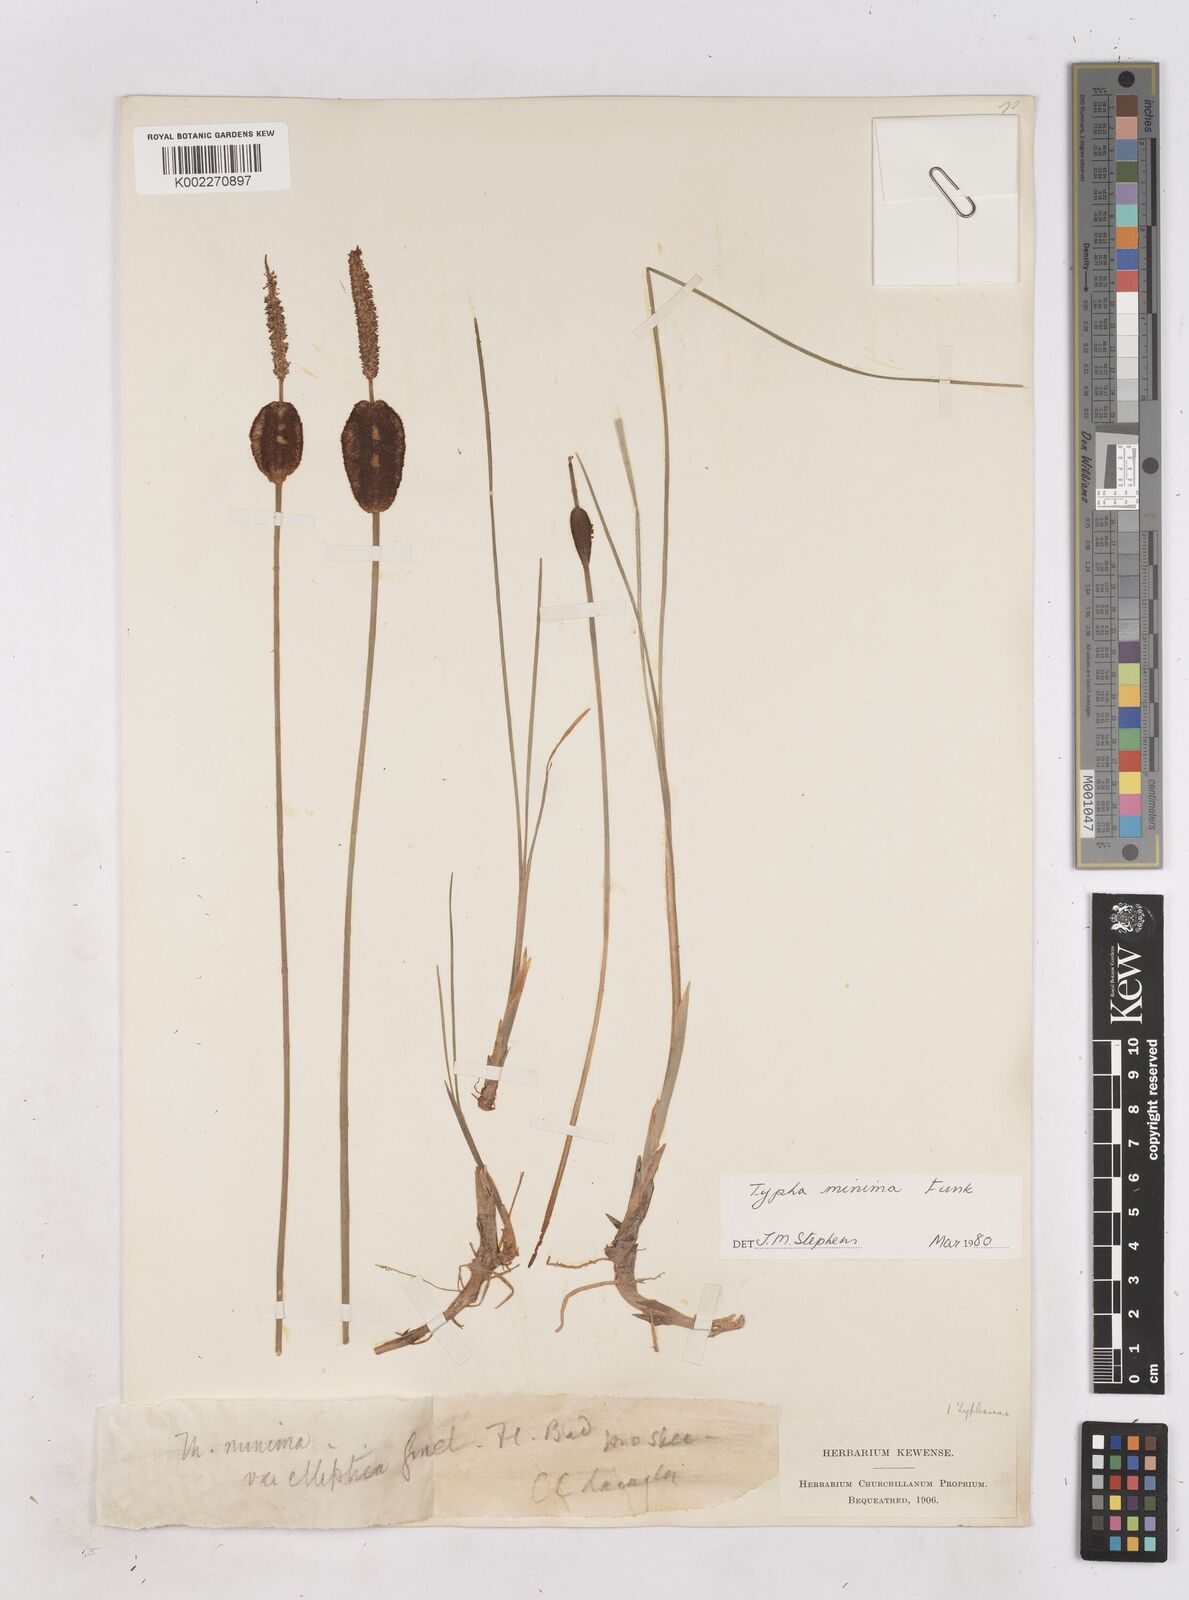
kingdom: Plantae
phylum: Tracheophyta
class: Liliopsida
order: Poales
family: Typhaceae
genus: Typha
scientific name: Typha minima
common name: Dwarf bulrush
